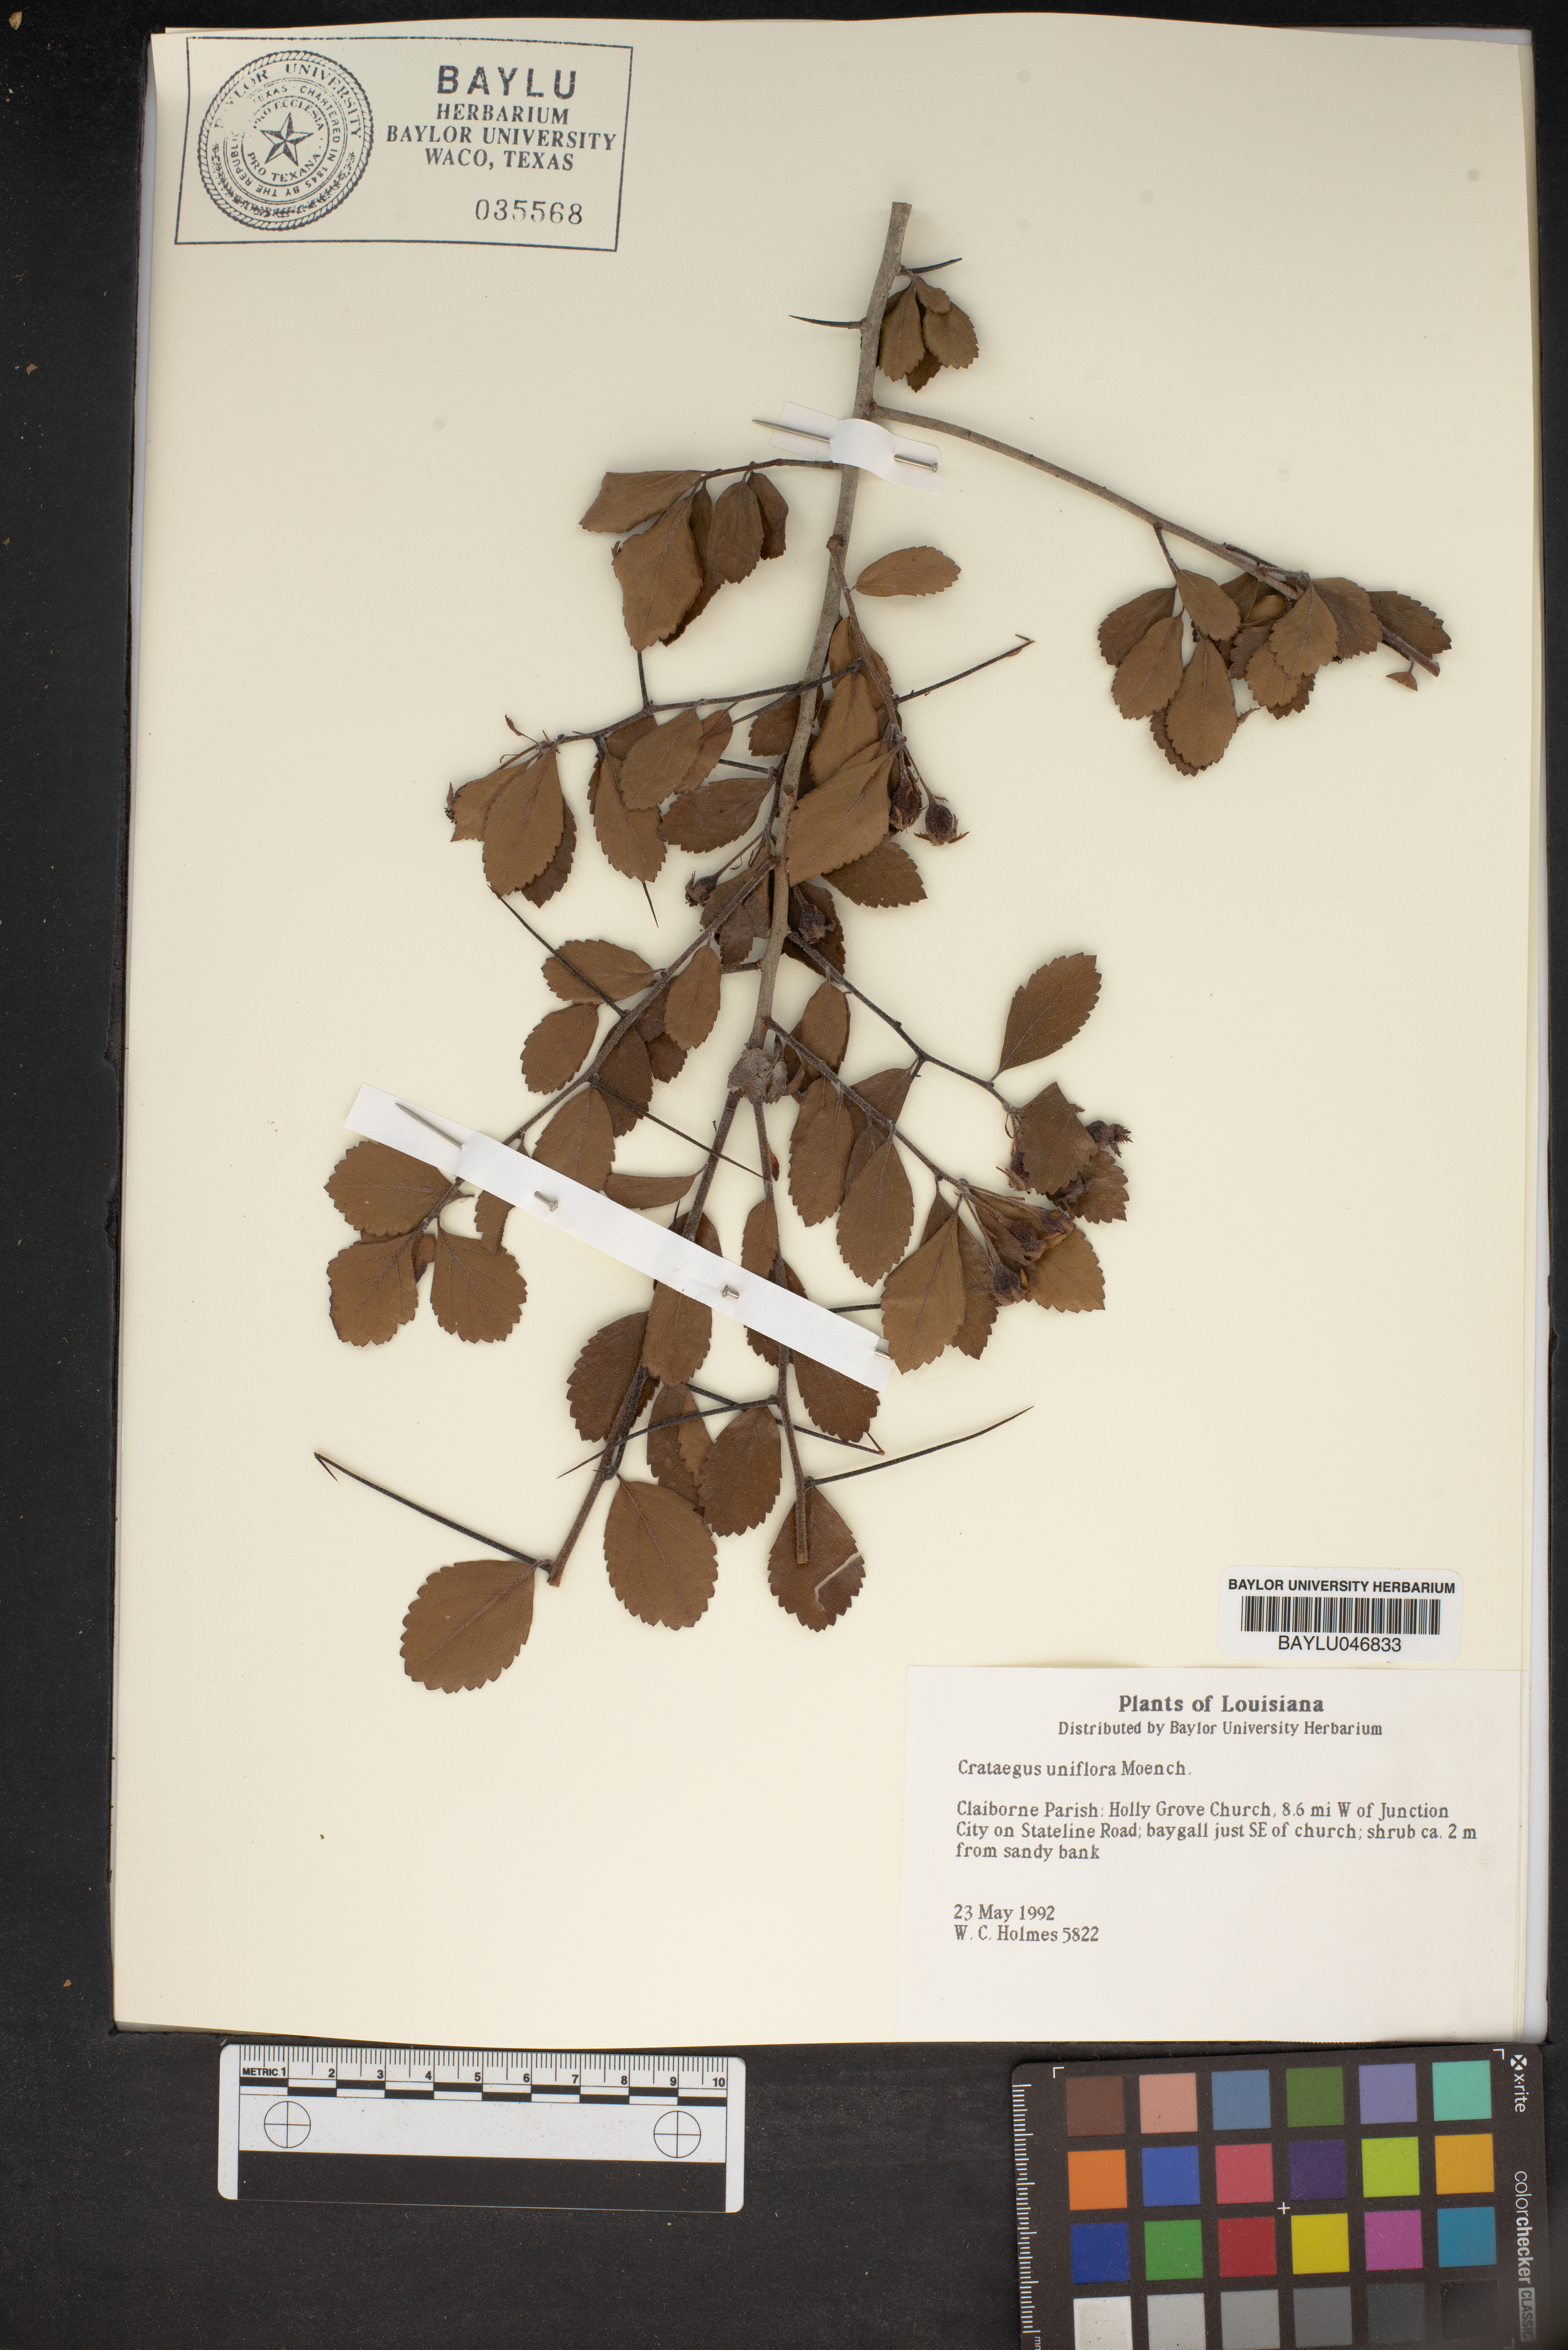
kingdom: Plantae
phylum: Tracheophyta
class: Magnoliopsida
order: Rosales
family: Rosaceae
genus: Crataegus
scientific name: Crataegus uniflora
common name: One-flower hawthorn
